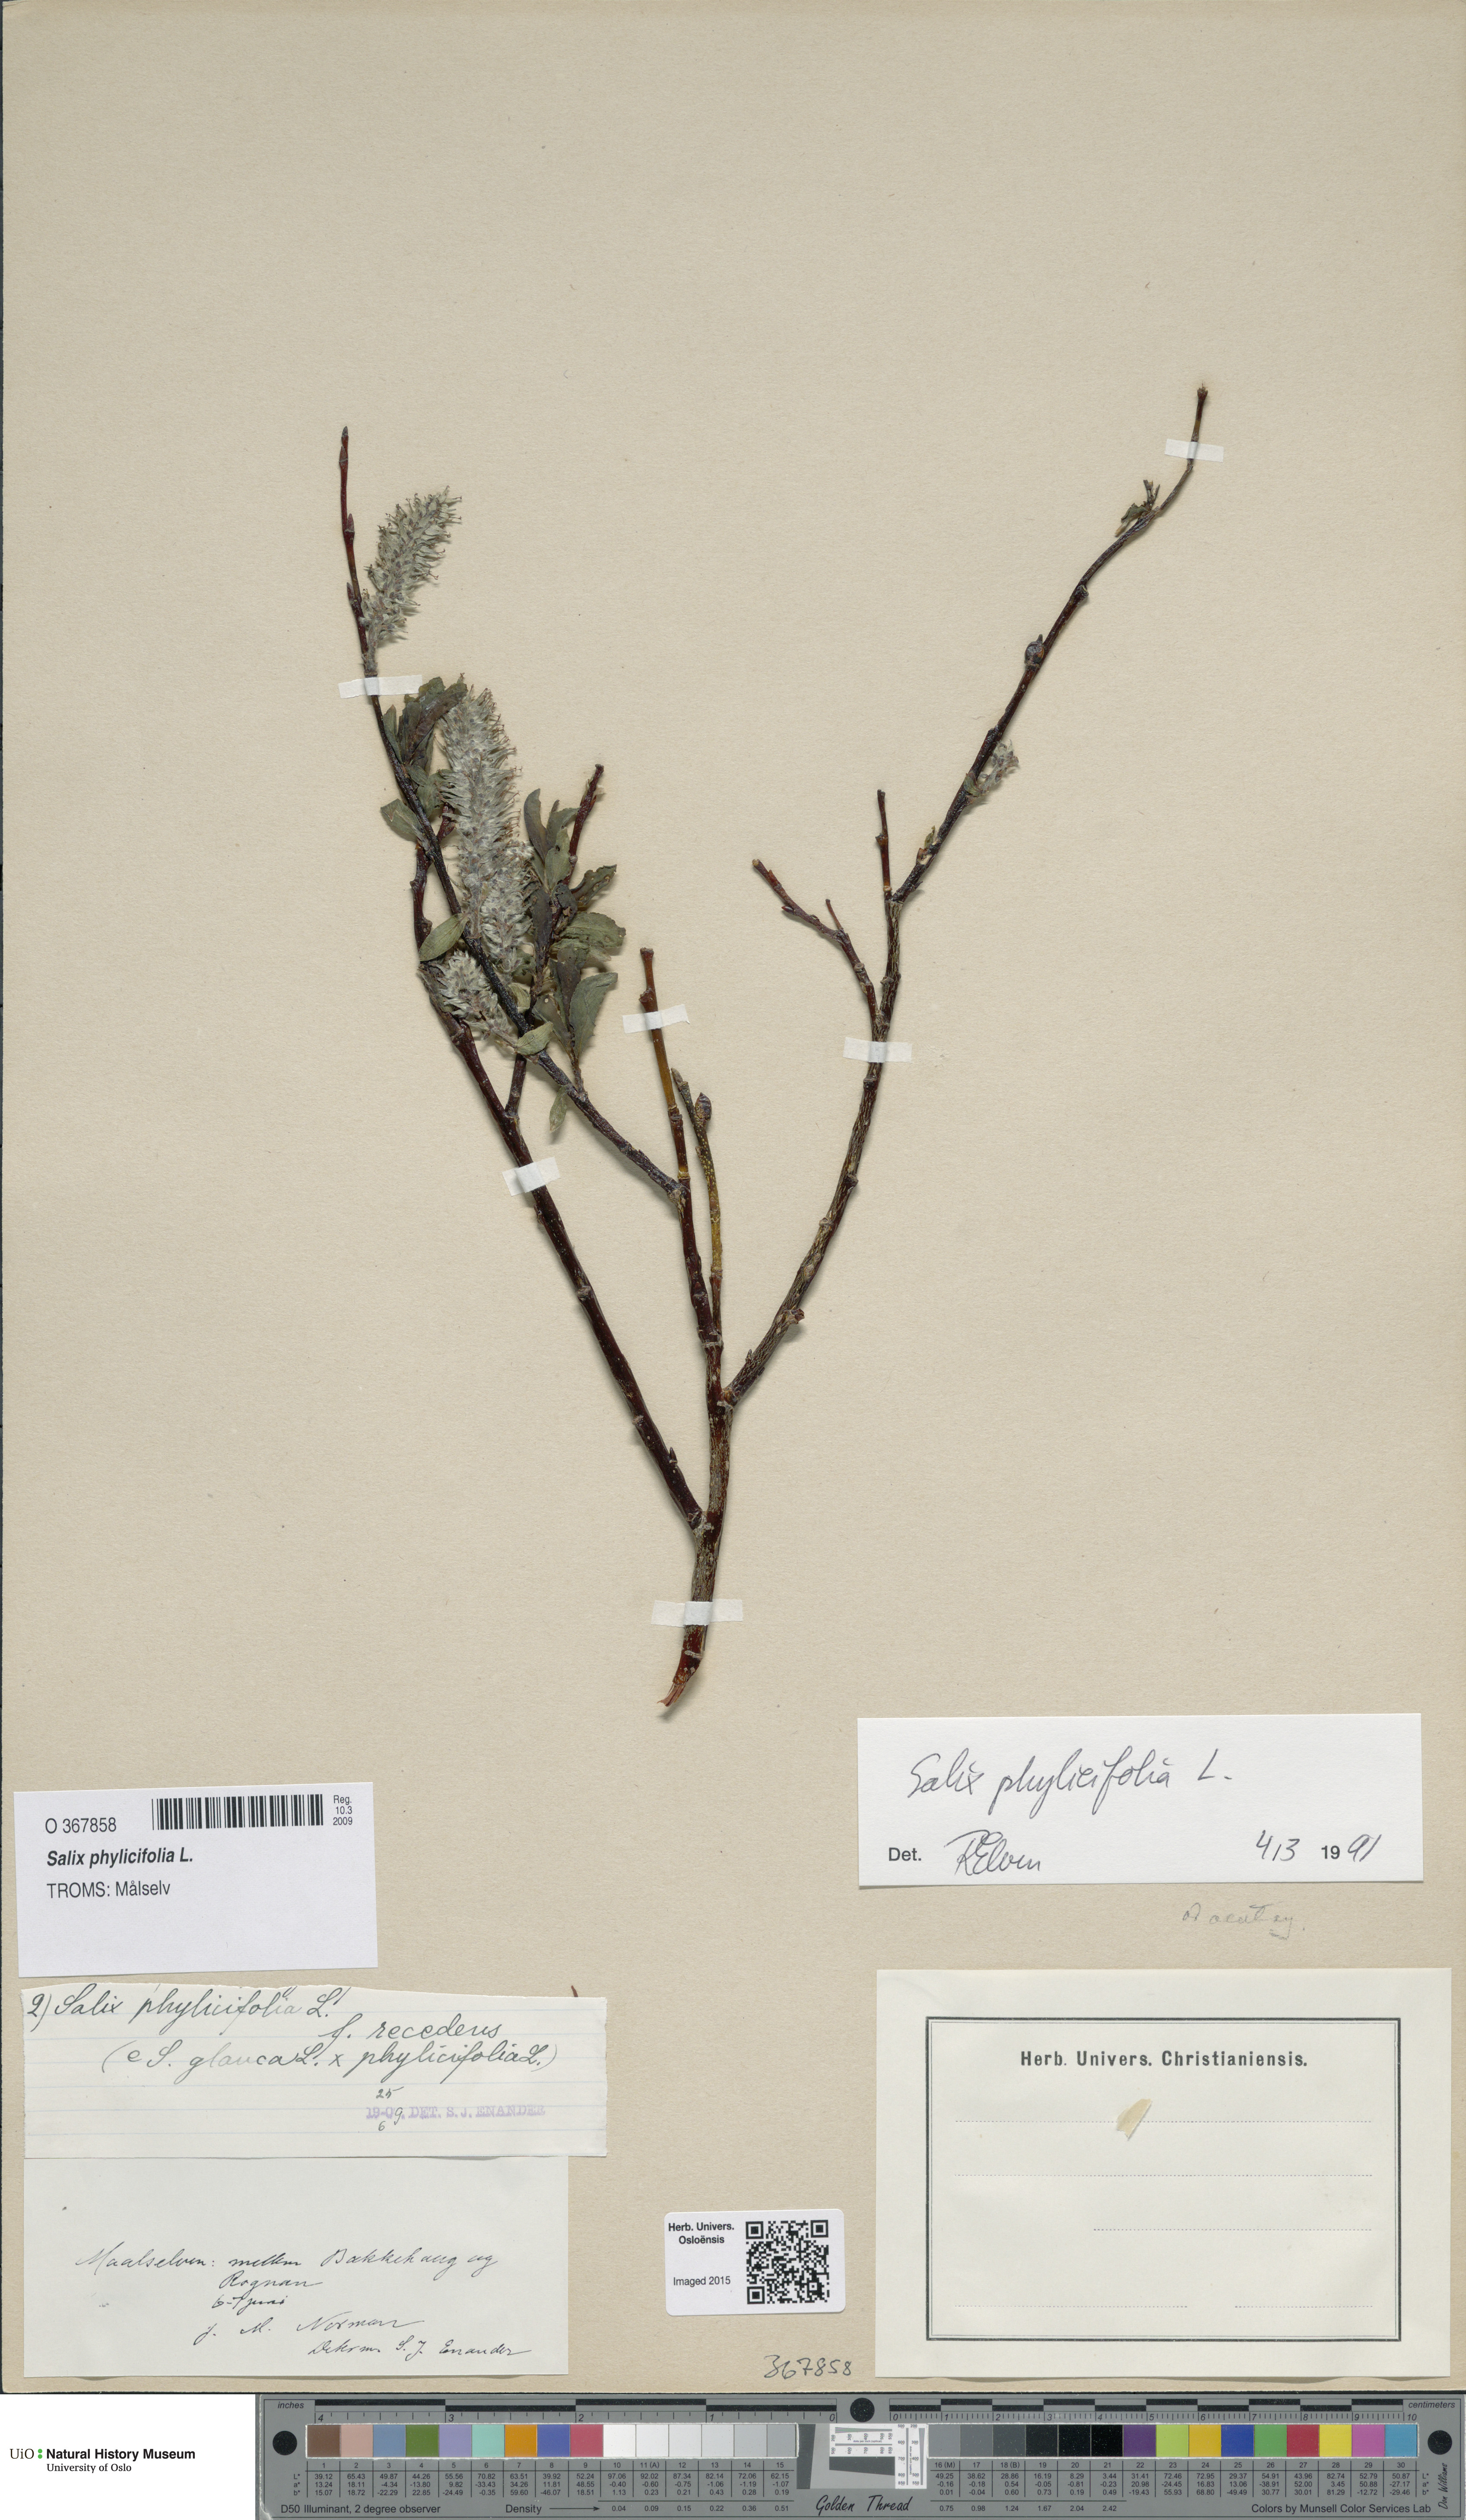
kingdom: Plantae
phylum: Tracheophyta
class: Magnoliopsida
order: Malpighiales
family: Salicaceae
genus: Salix
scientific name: Salix phylicifolia
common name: Tea-leaved willow
